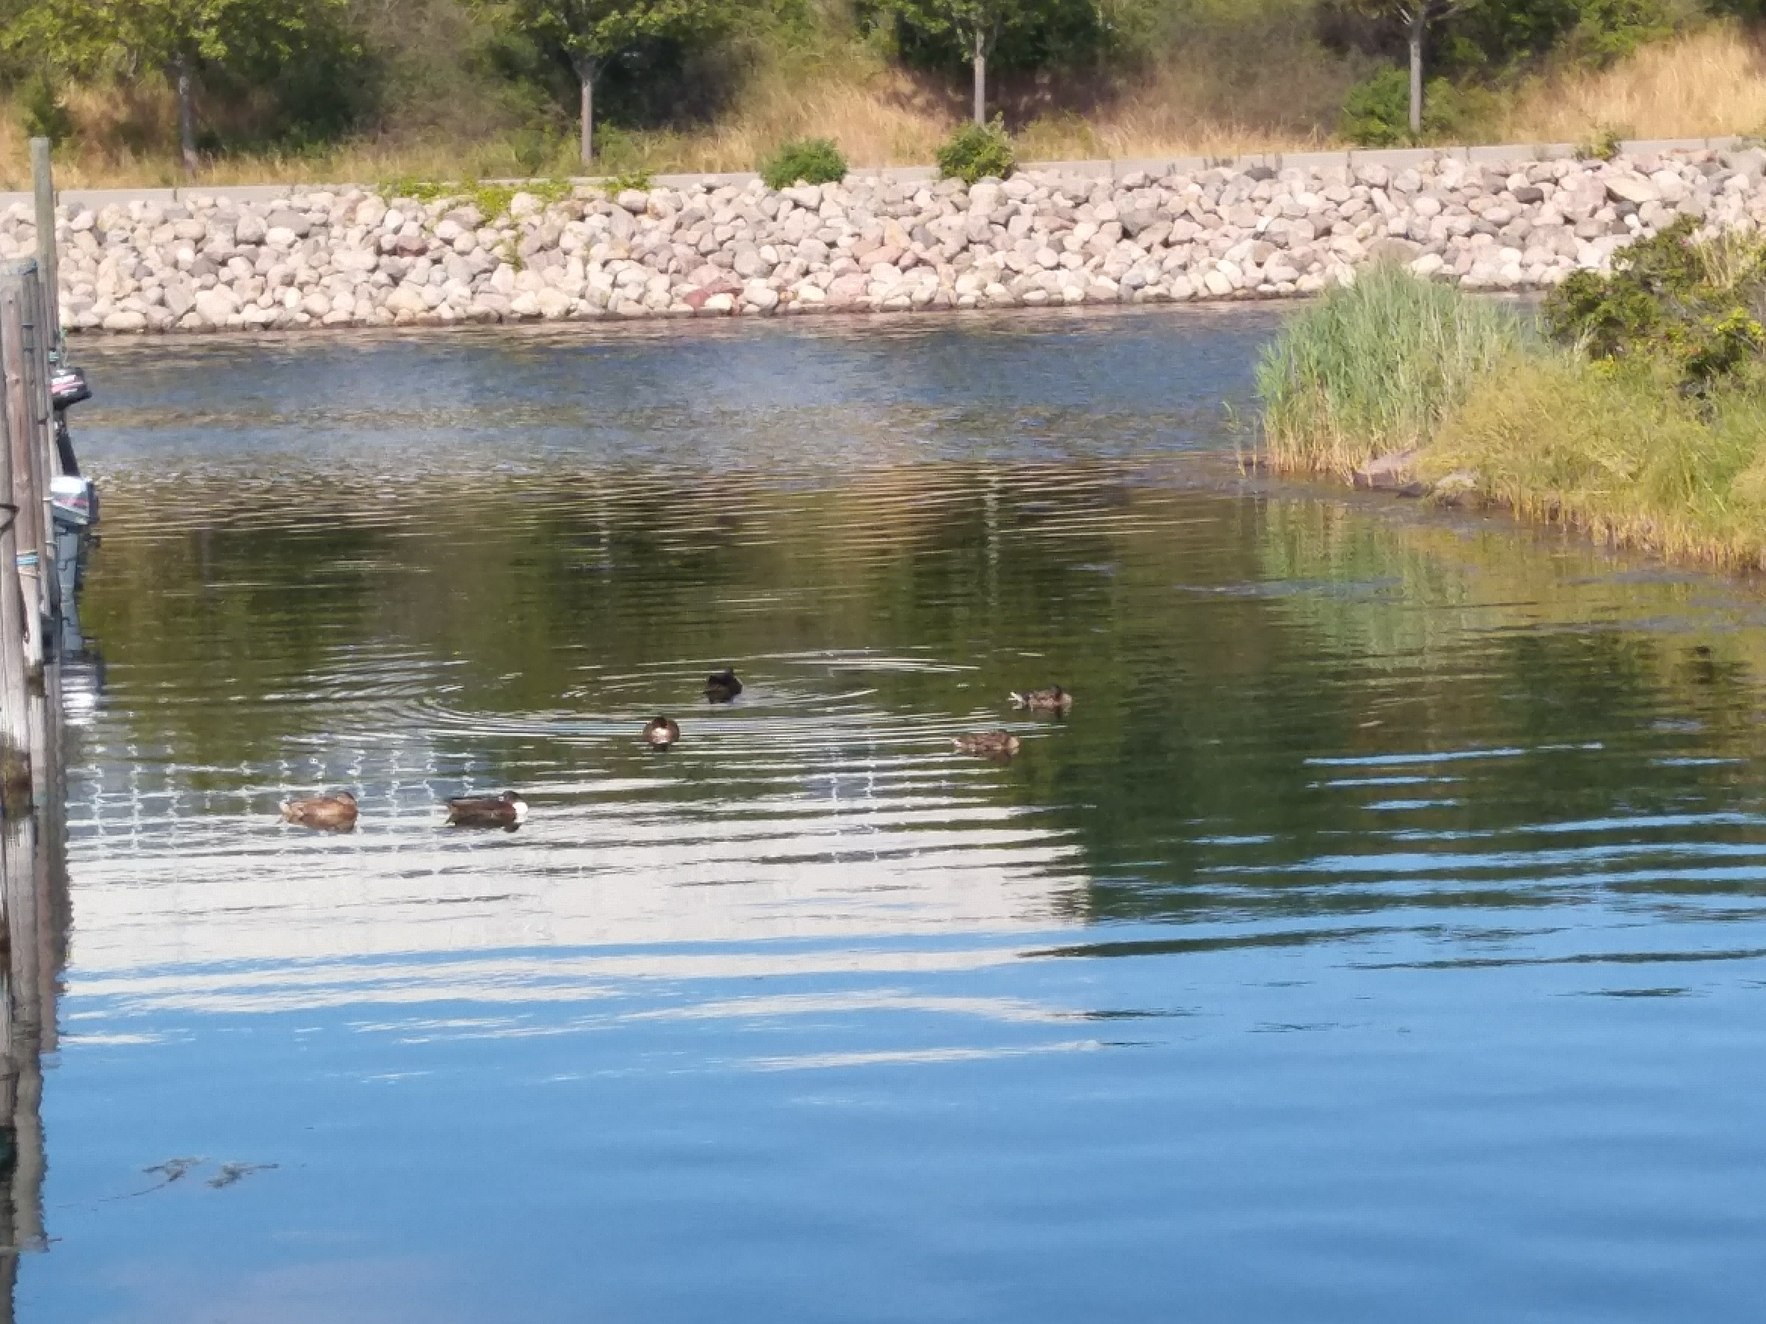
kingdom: Animalia
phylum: Chordata
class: Aves
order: Anseriformes
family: Anatidae
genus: Anas
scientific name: Anas platyrhynchos
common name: Gråand
